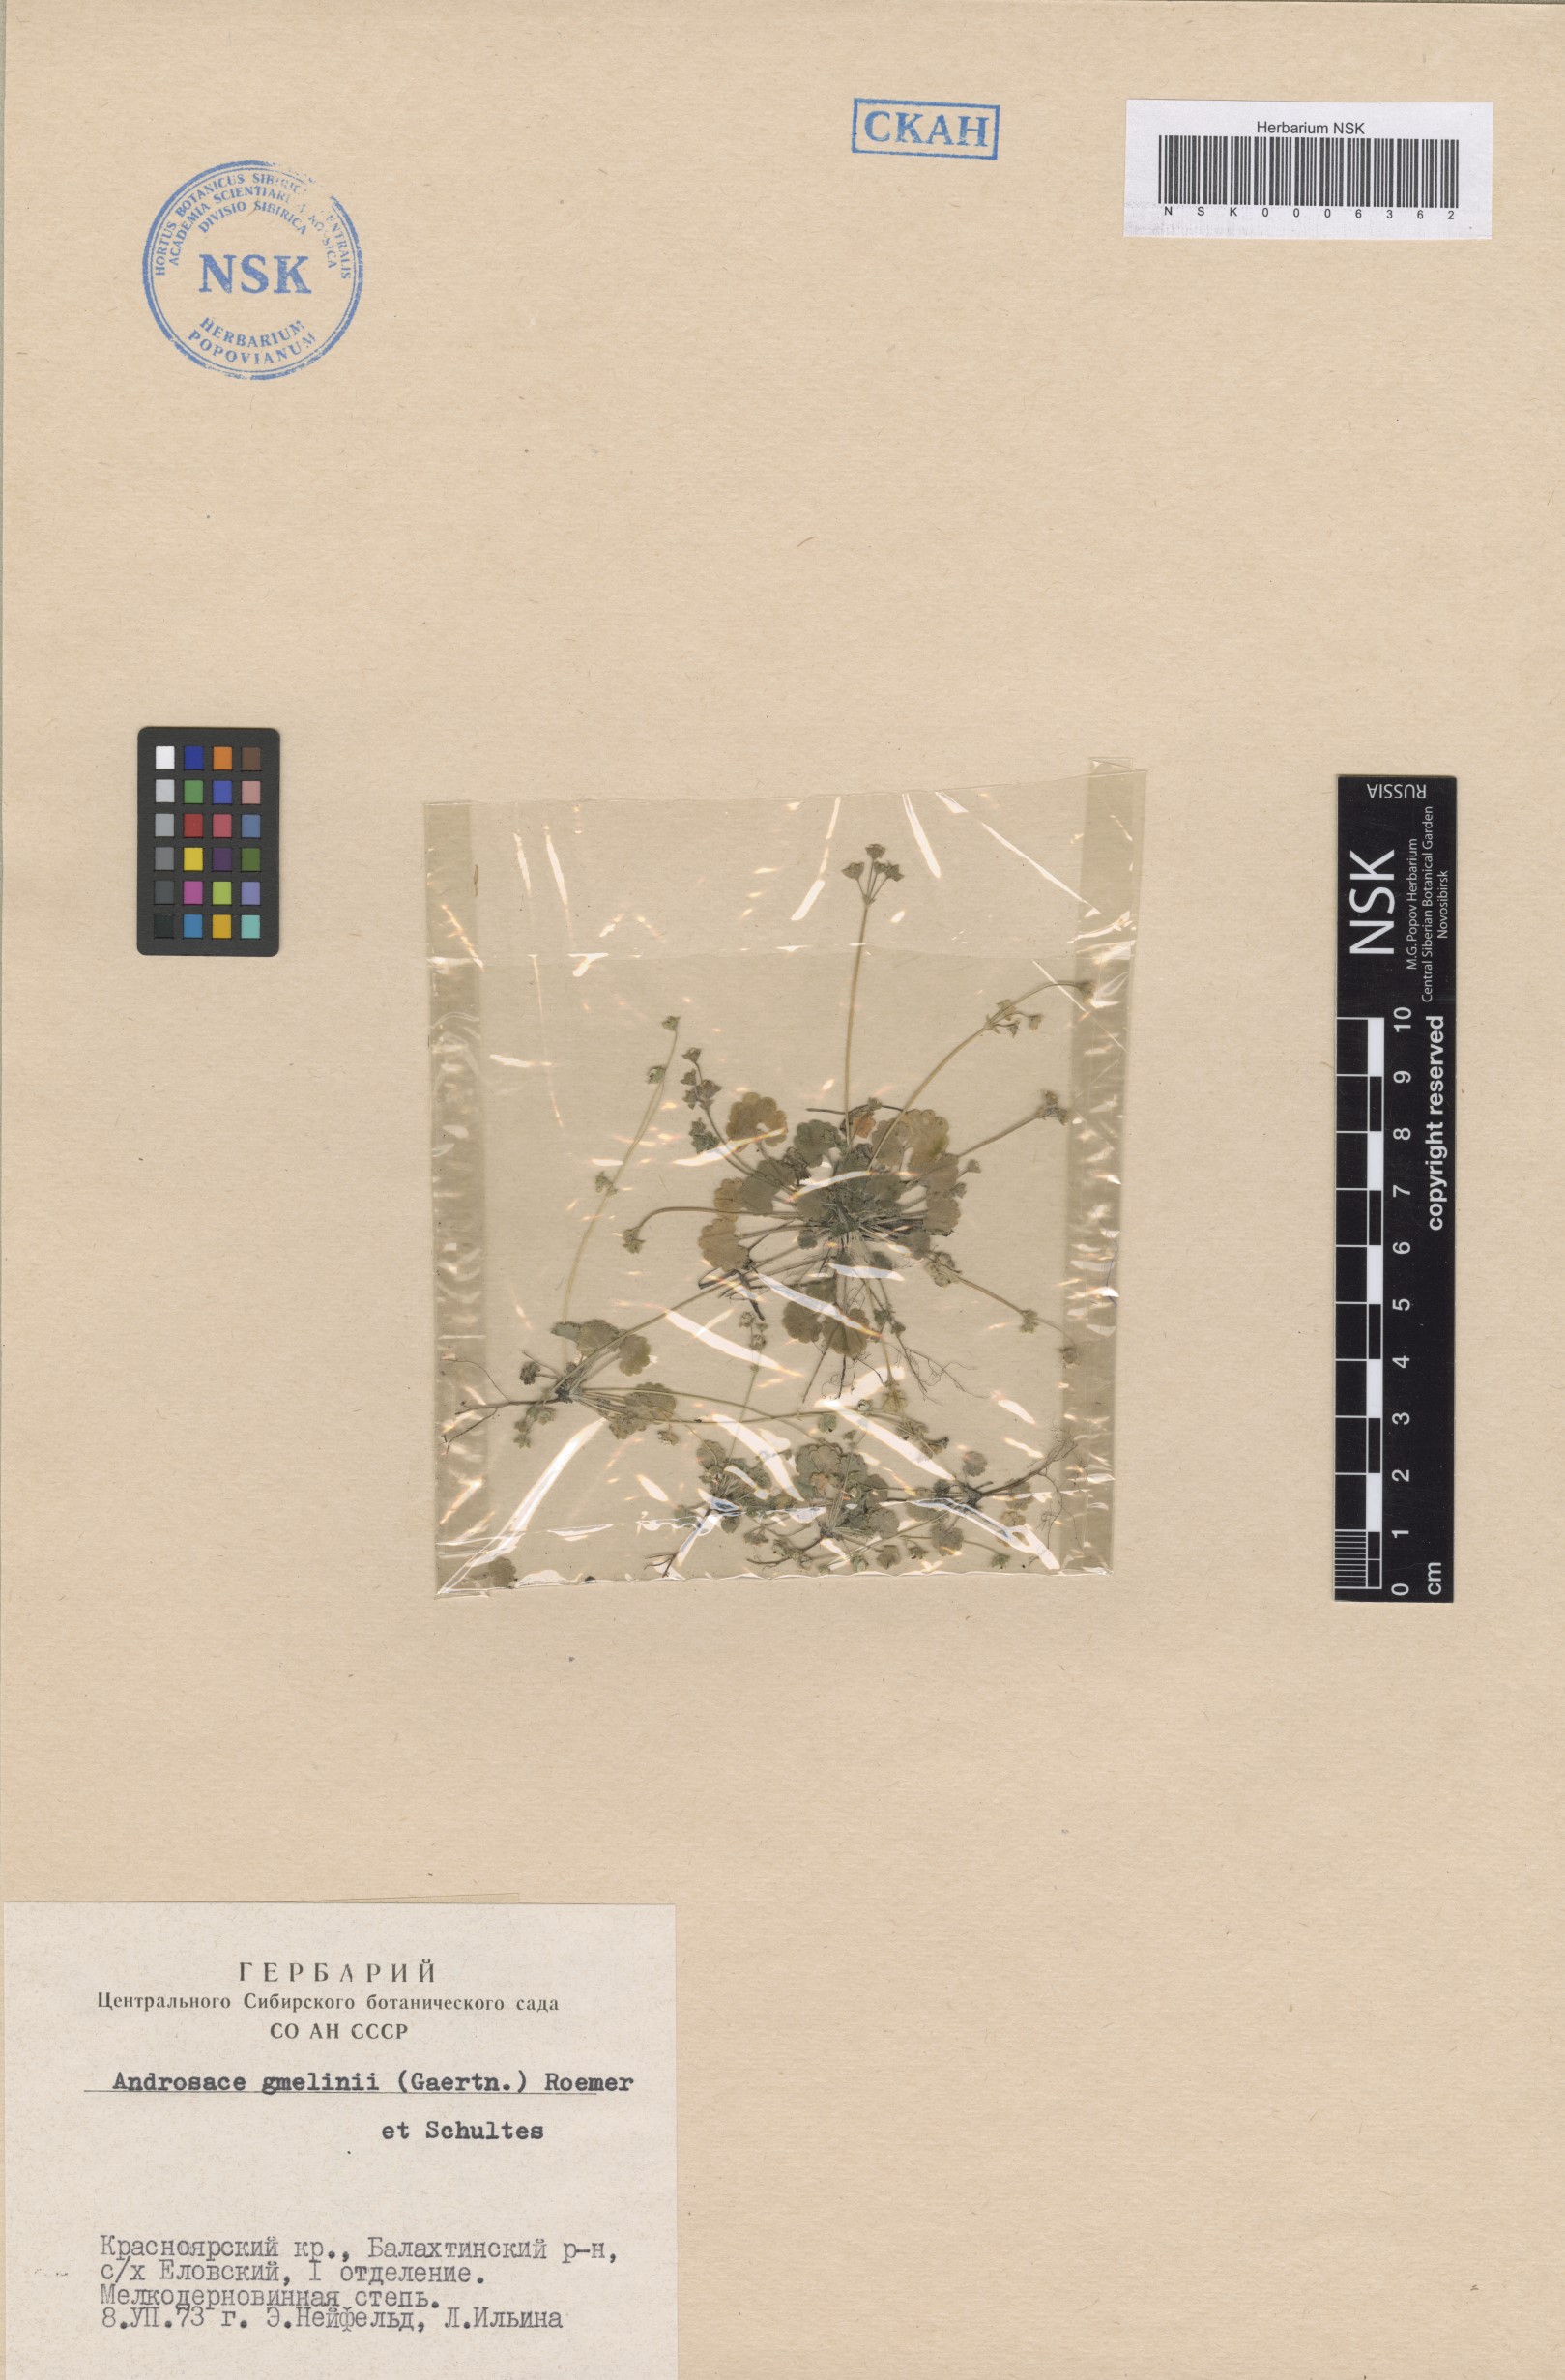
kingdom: Plantae
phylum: Tracheophyta
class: Magnoliopsida
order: Ericales
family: Primulaceae
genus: Androsace
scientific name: Androsace gmelinii
